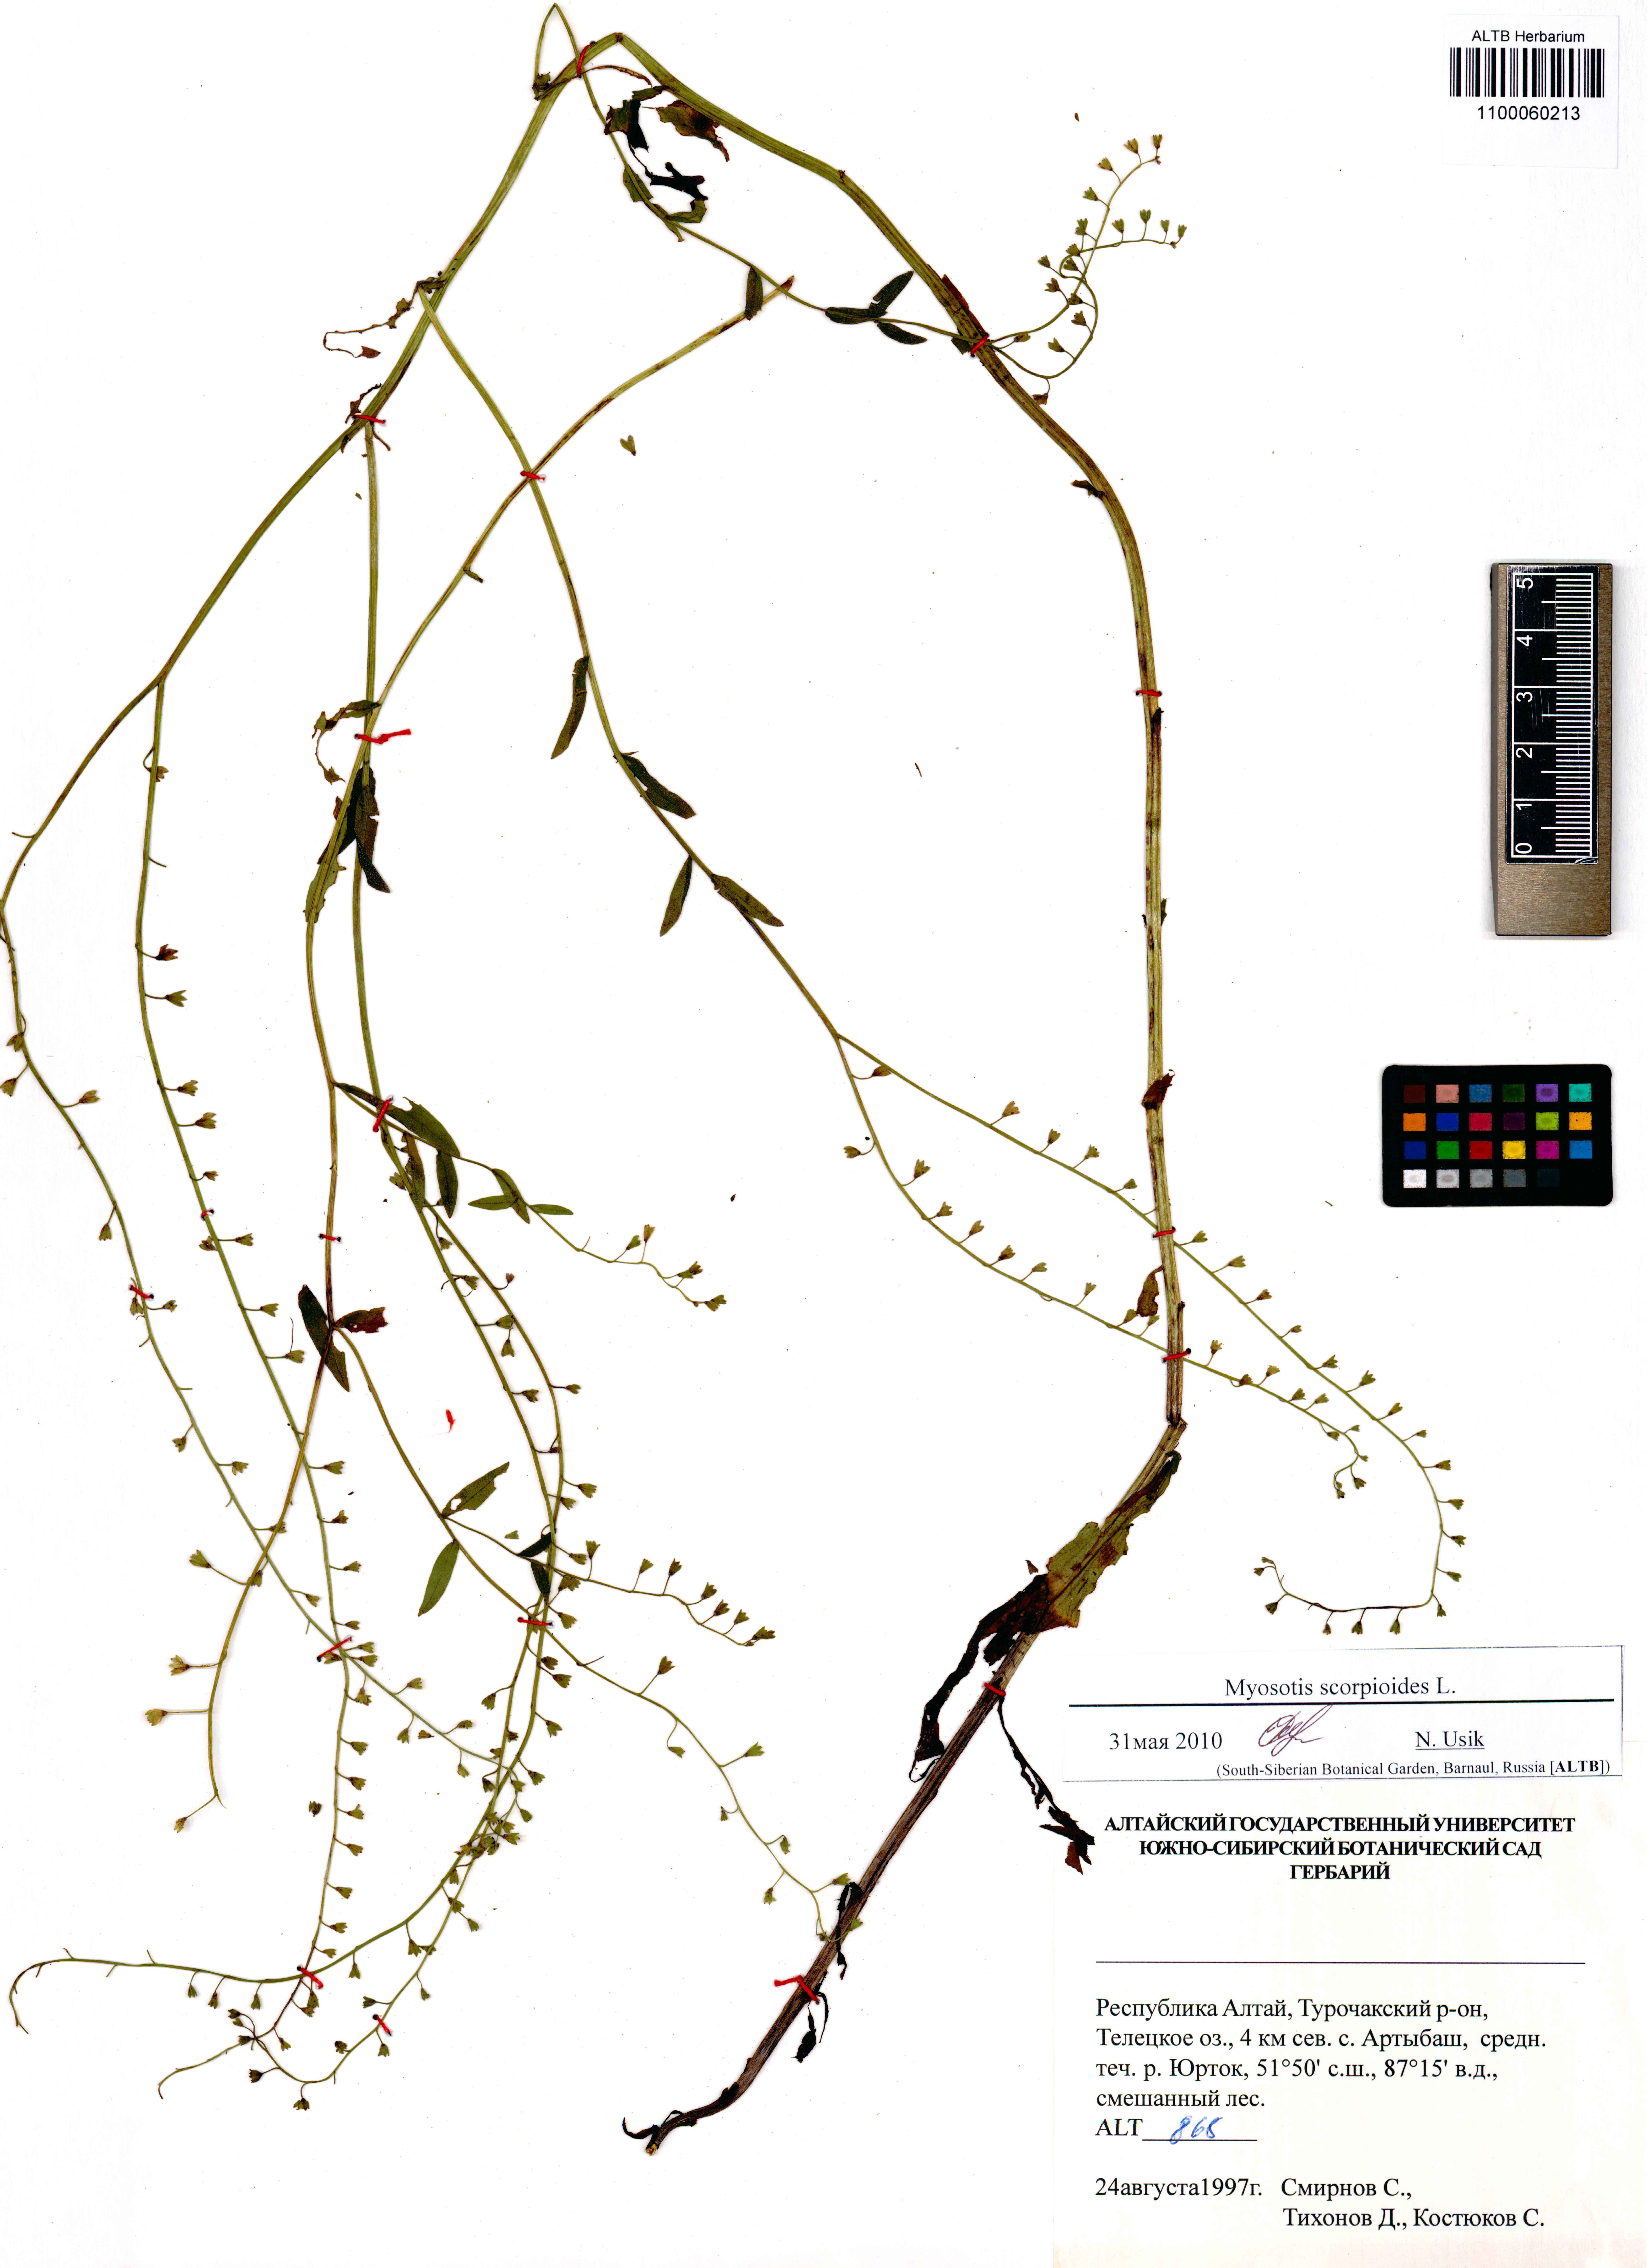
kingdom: Plantae
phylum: Tracheophyta
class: Magnoliopsida
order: Boraginales
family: Boraginaceae
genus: Myosotis
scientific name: Myosotis scorpioides
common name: Water forget-me-not
